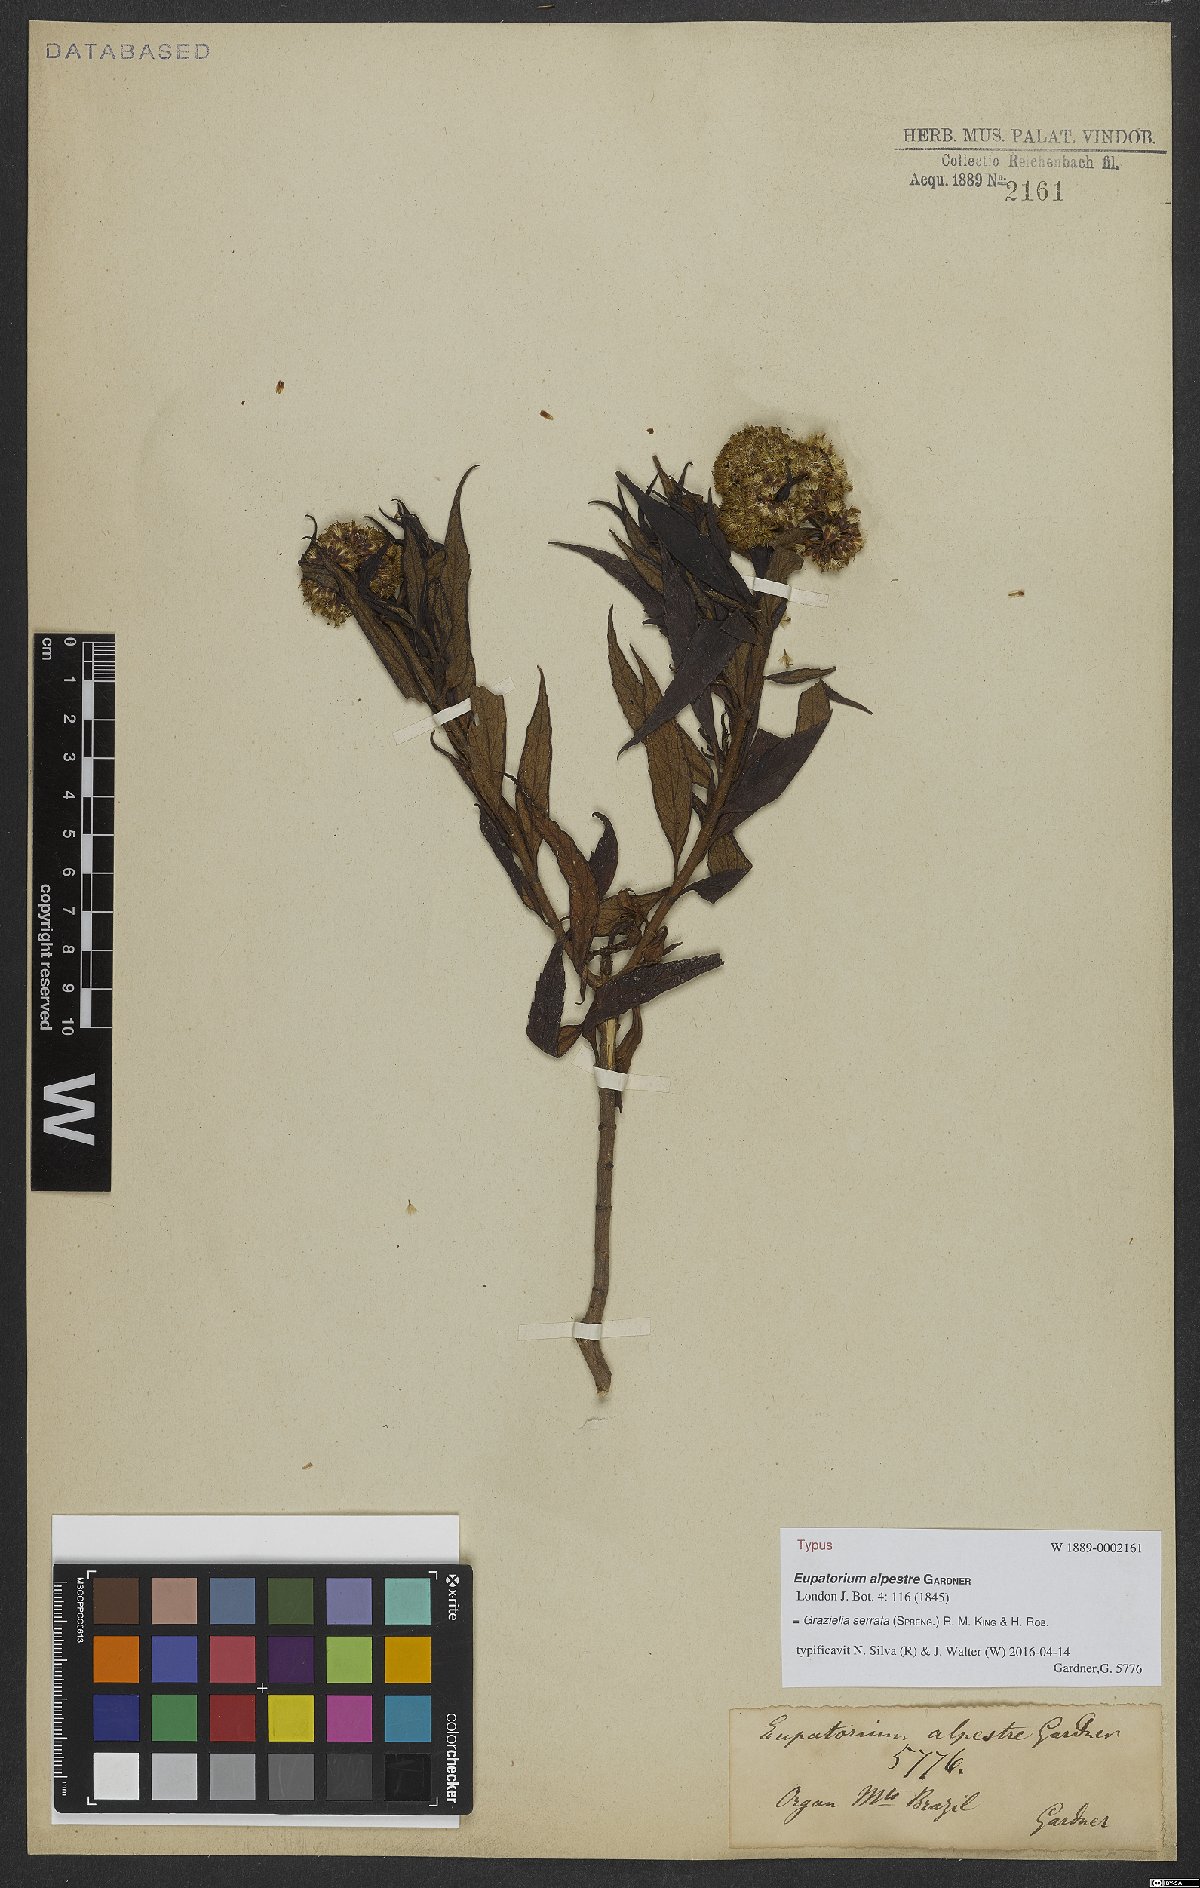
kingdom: Plantae
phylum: Tracheophyta
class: Magnoliopsida
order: Asterales
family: Asteraceae
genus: Grazielia
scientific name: Grazielia serrata
